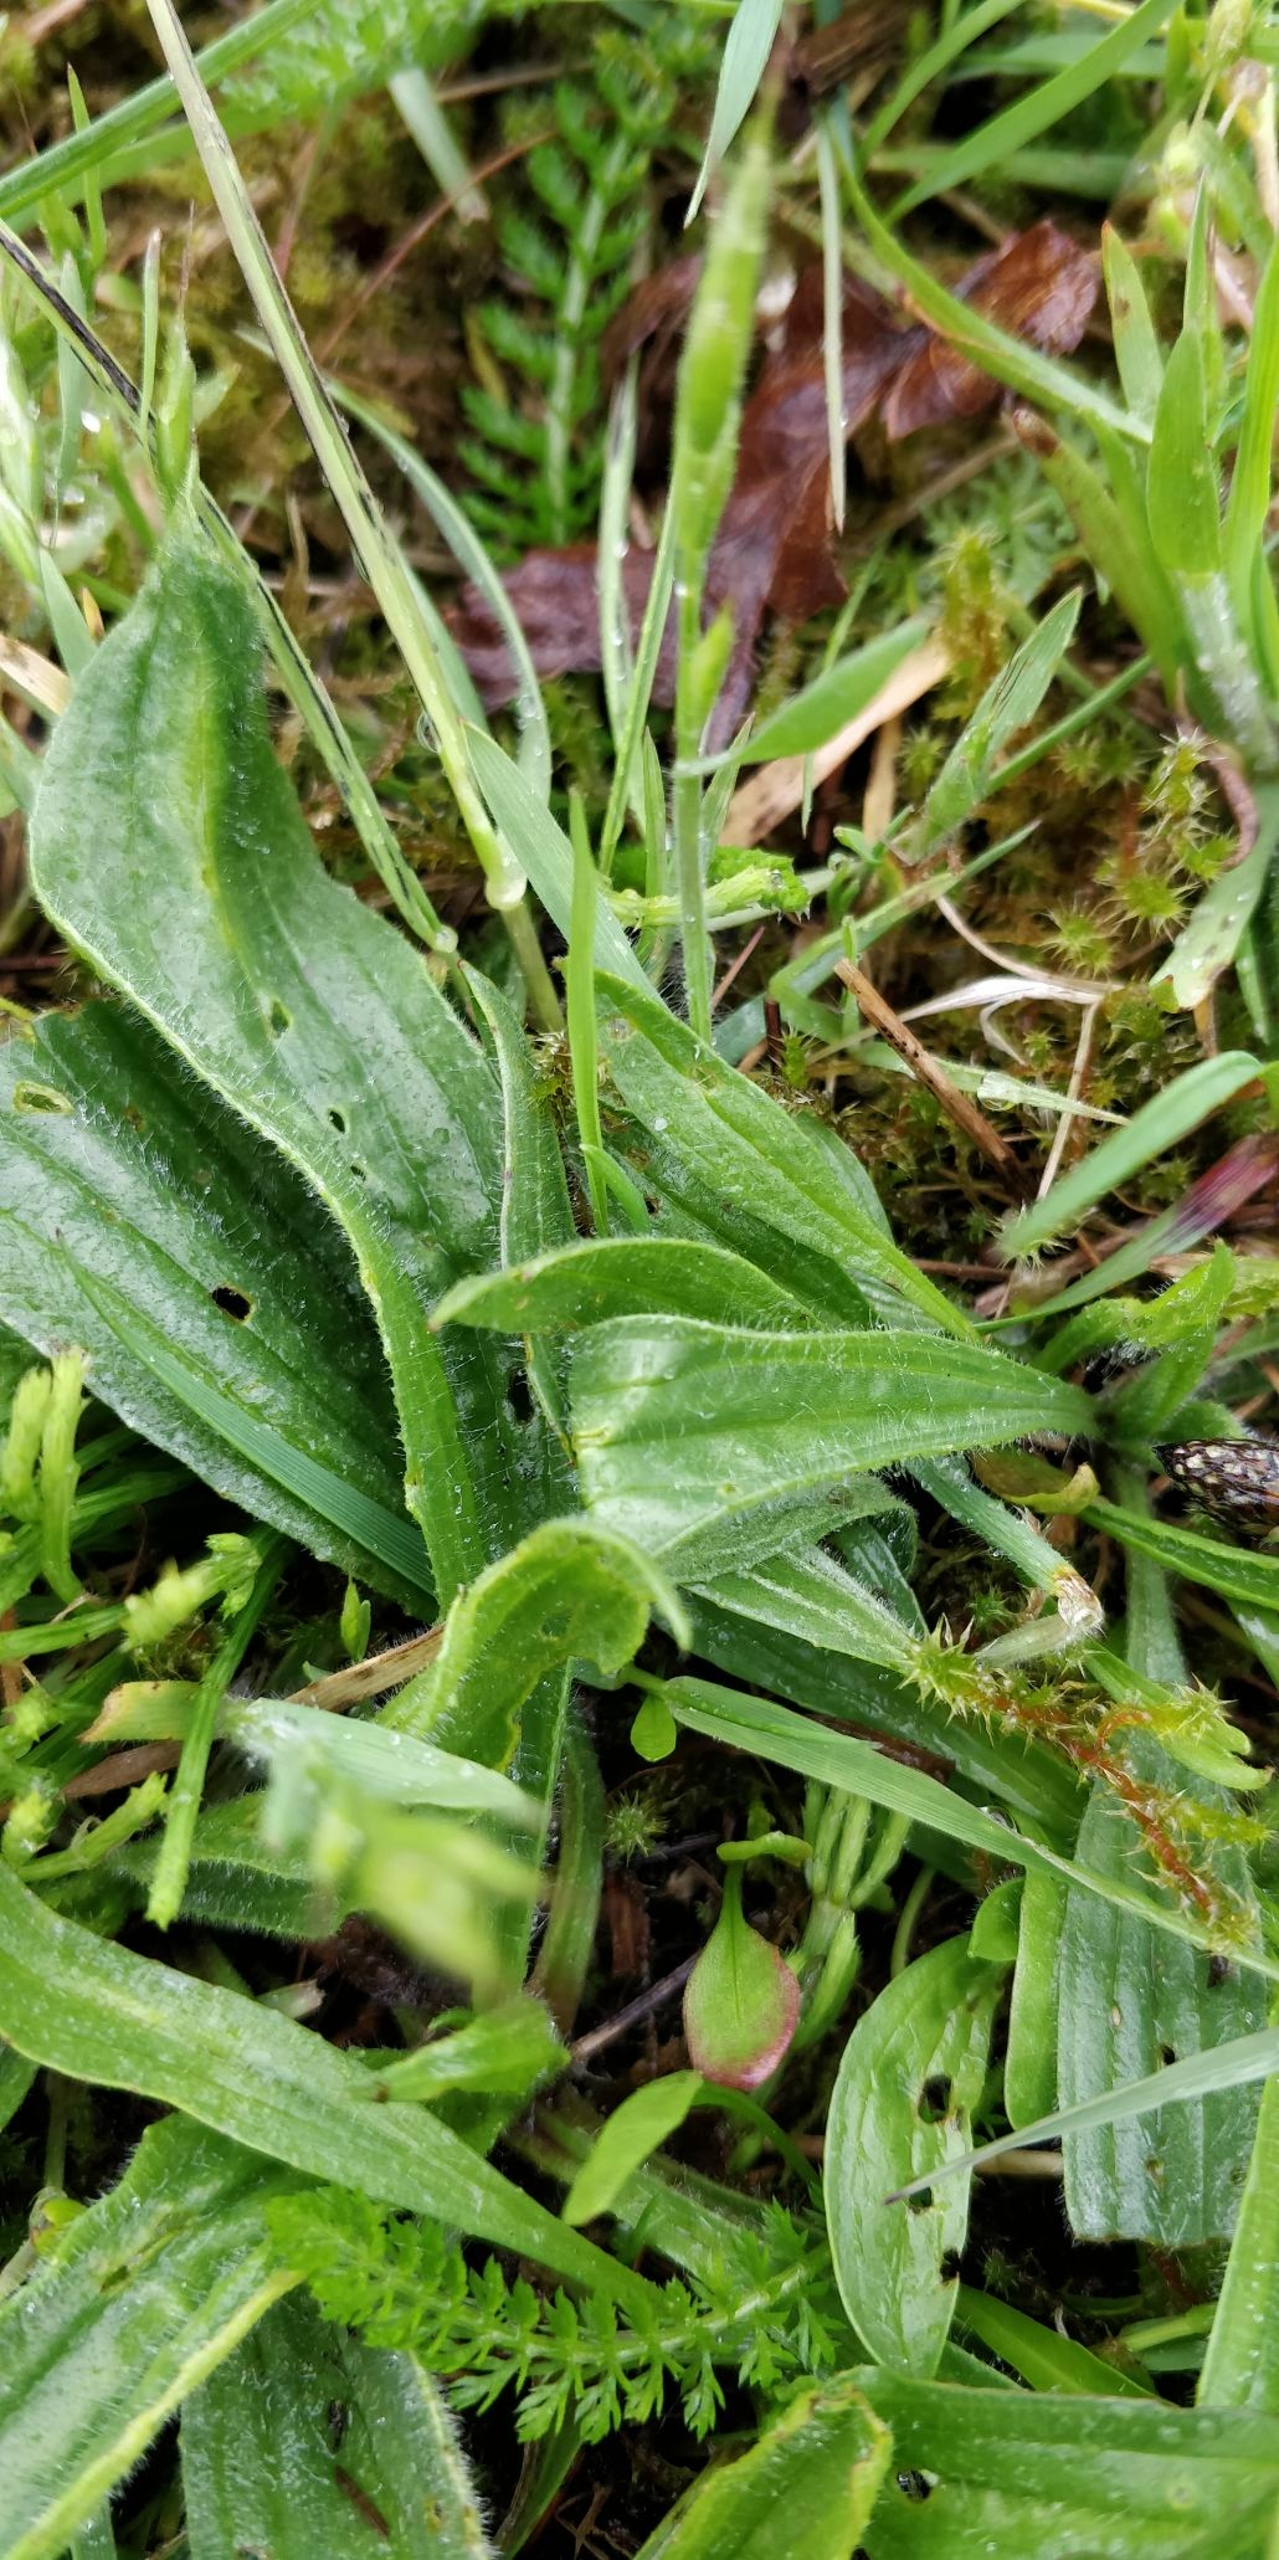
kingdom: Plantae
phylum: Tracheophyta
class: Magnoliopsida
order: Lamiales
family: Plantaginaceae
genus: Plantago
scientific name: Plantago lanceolata
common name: Lancet-vejbred
